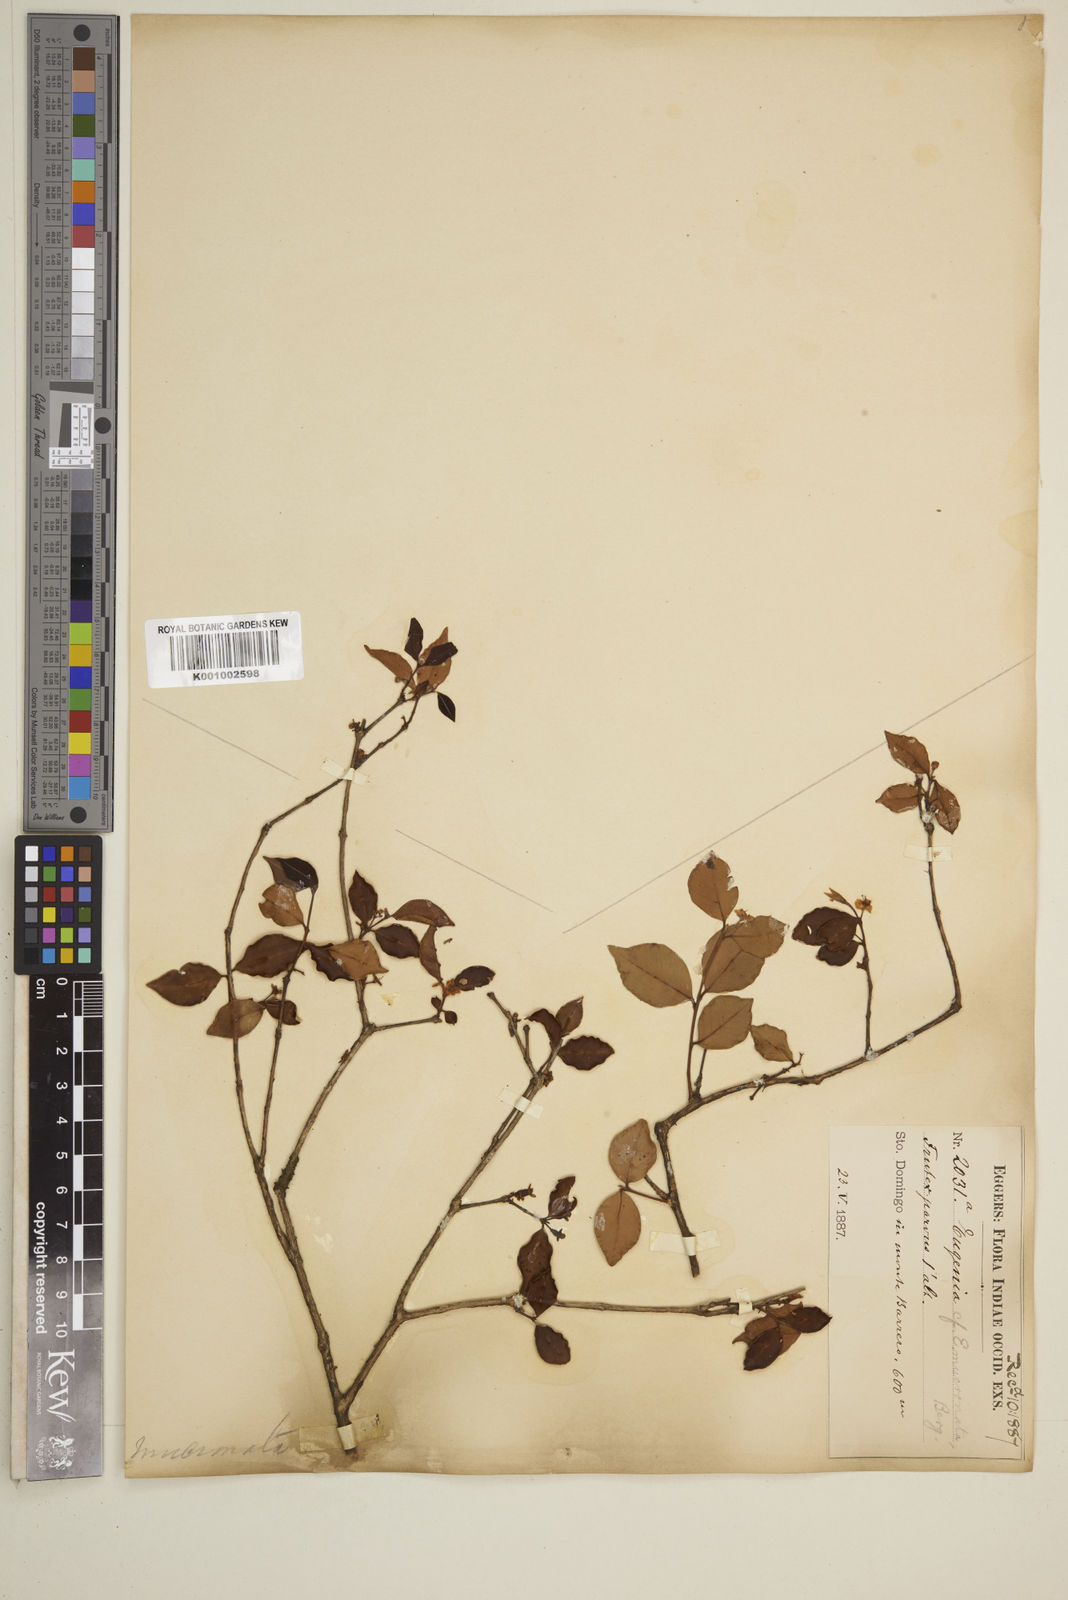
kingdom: Plantae
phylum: Tracheophyta
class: Magnoliopsida
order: Myrtales
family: Myrtaceae
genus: Eugenia
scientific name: Eugenia mucronata
